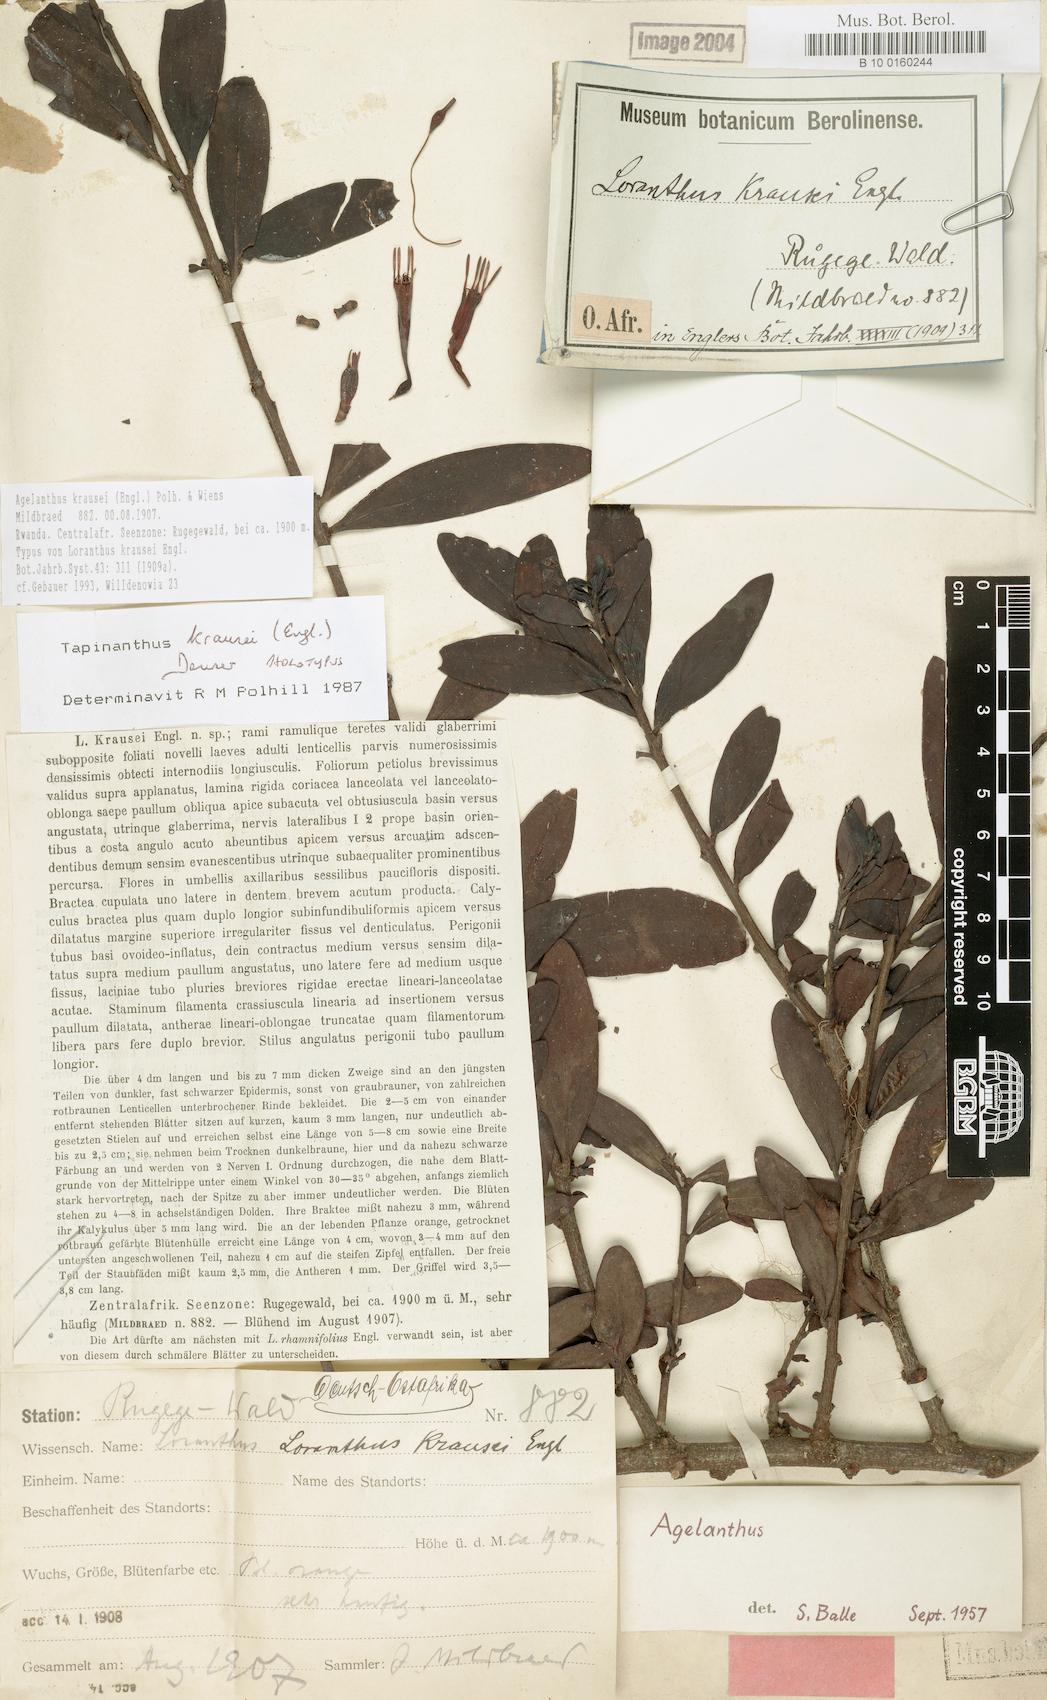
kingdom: Plantae
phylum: Tracheophyta
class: Magnoliopsida
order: Santalales
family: Loranthaceae
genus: Agelanthus
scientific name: Agelanthus krausei
